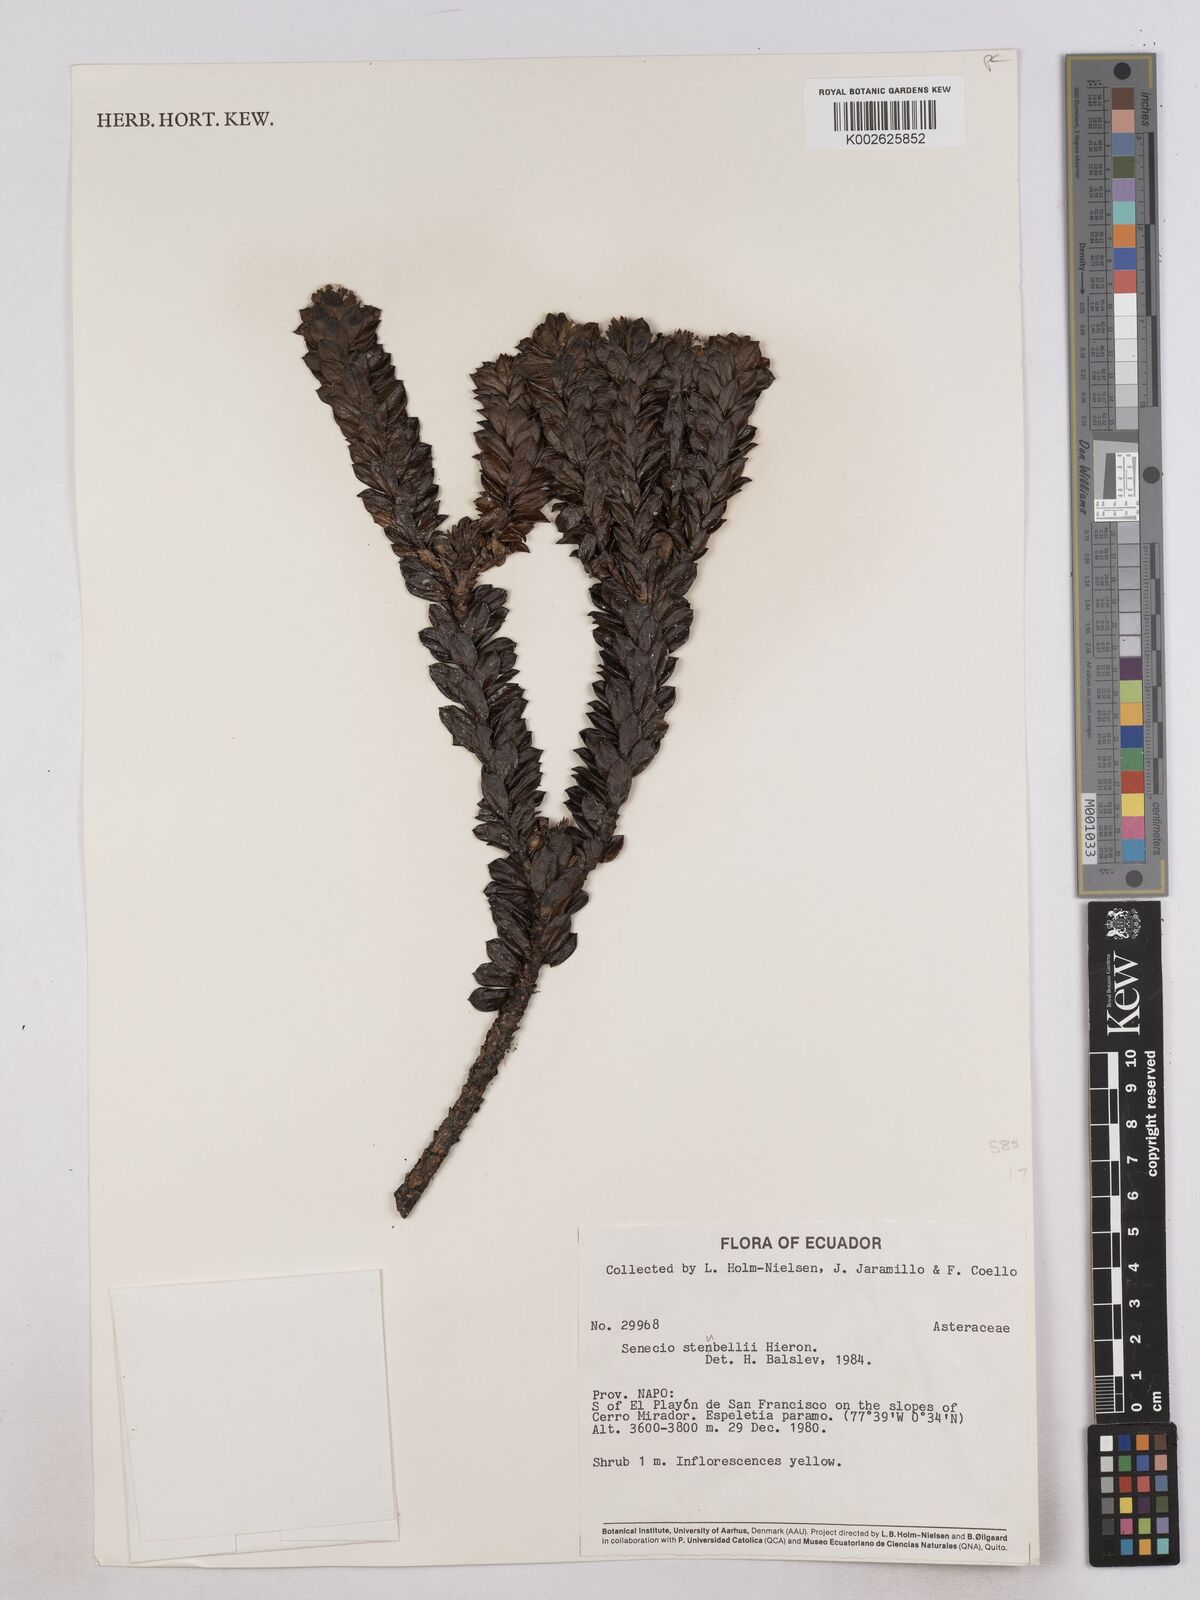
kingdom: Plantae
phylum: Tracheophyta
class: Magnoliopsida
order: Asterales
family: Asteraceae
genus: Monticalia
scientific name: Monticalia stuebelii
